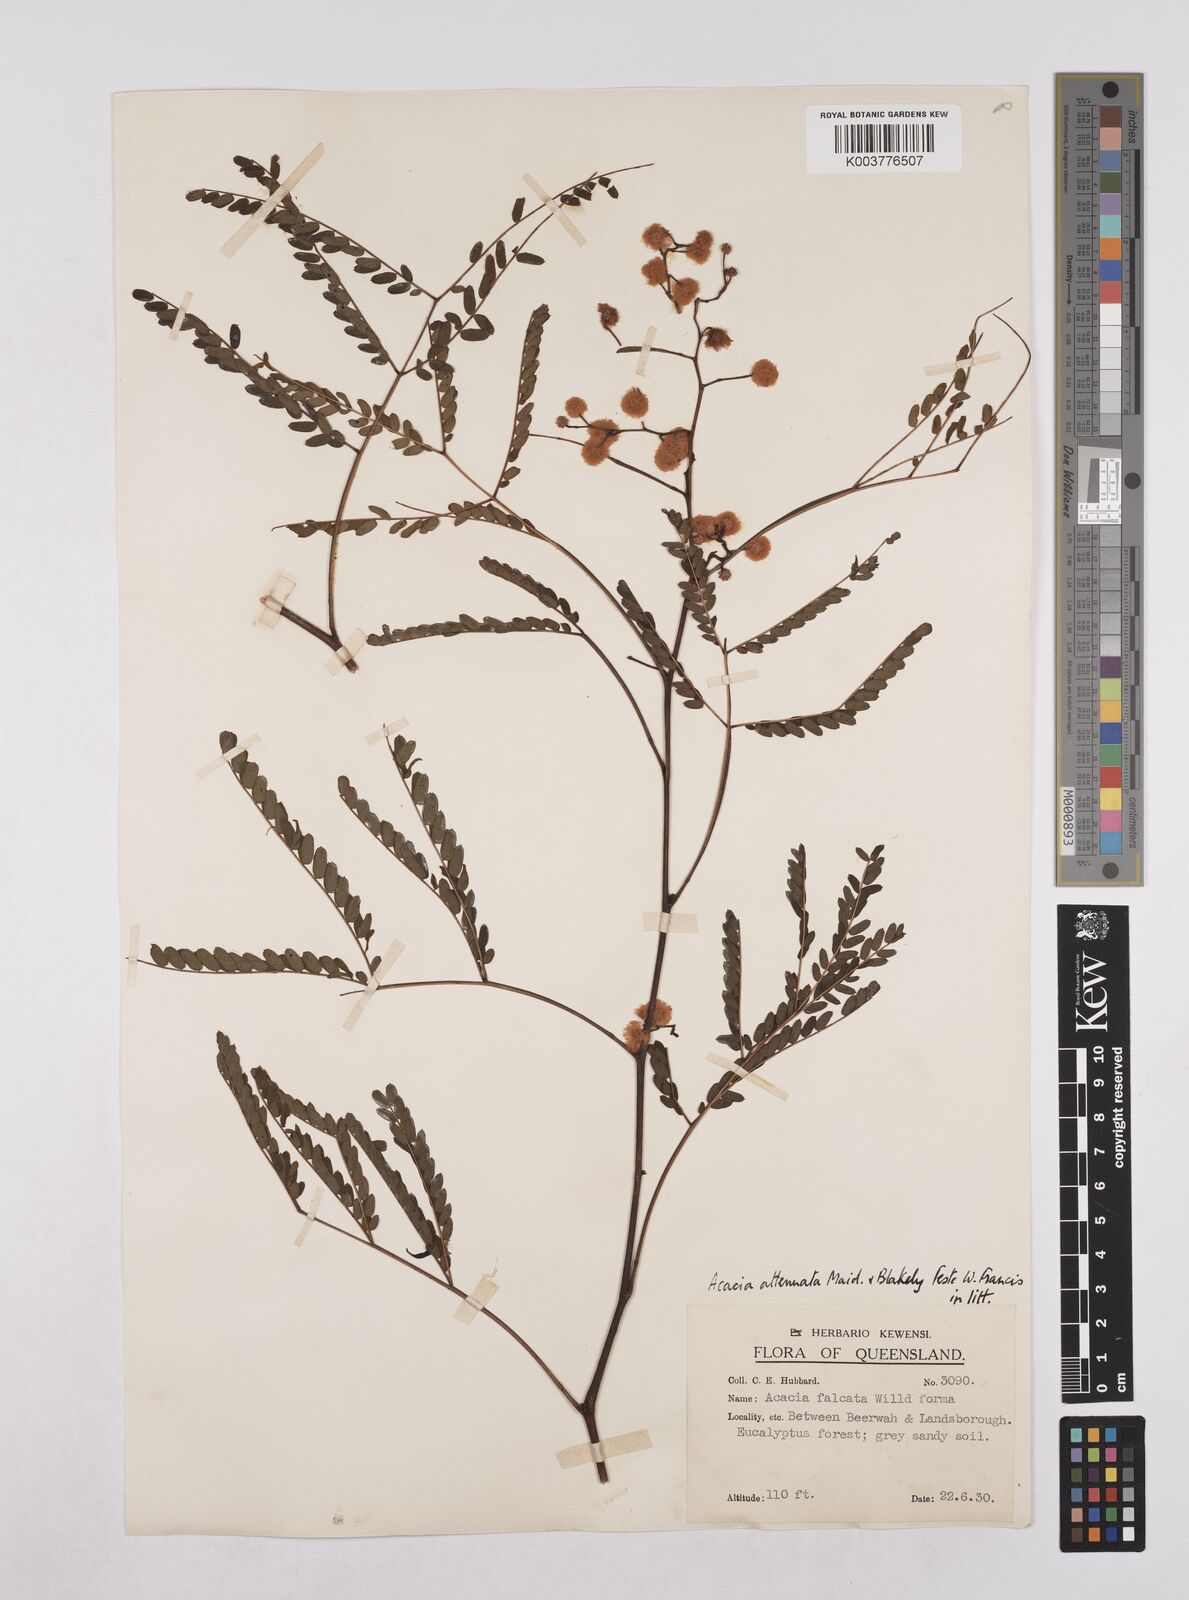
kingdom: Plantae
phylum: Tracheophyta
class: Magnoliopsida
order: Fabales
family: Fabaceae
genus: Acacia
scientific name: Acacia attenuata
